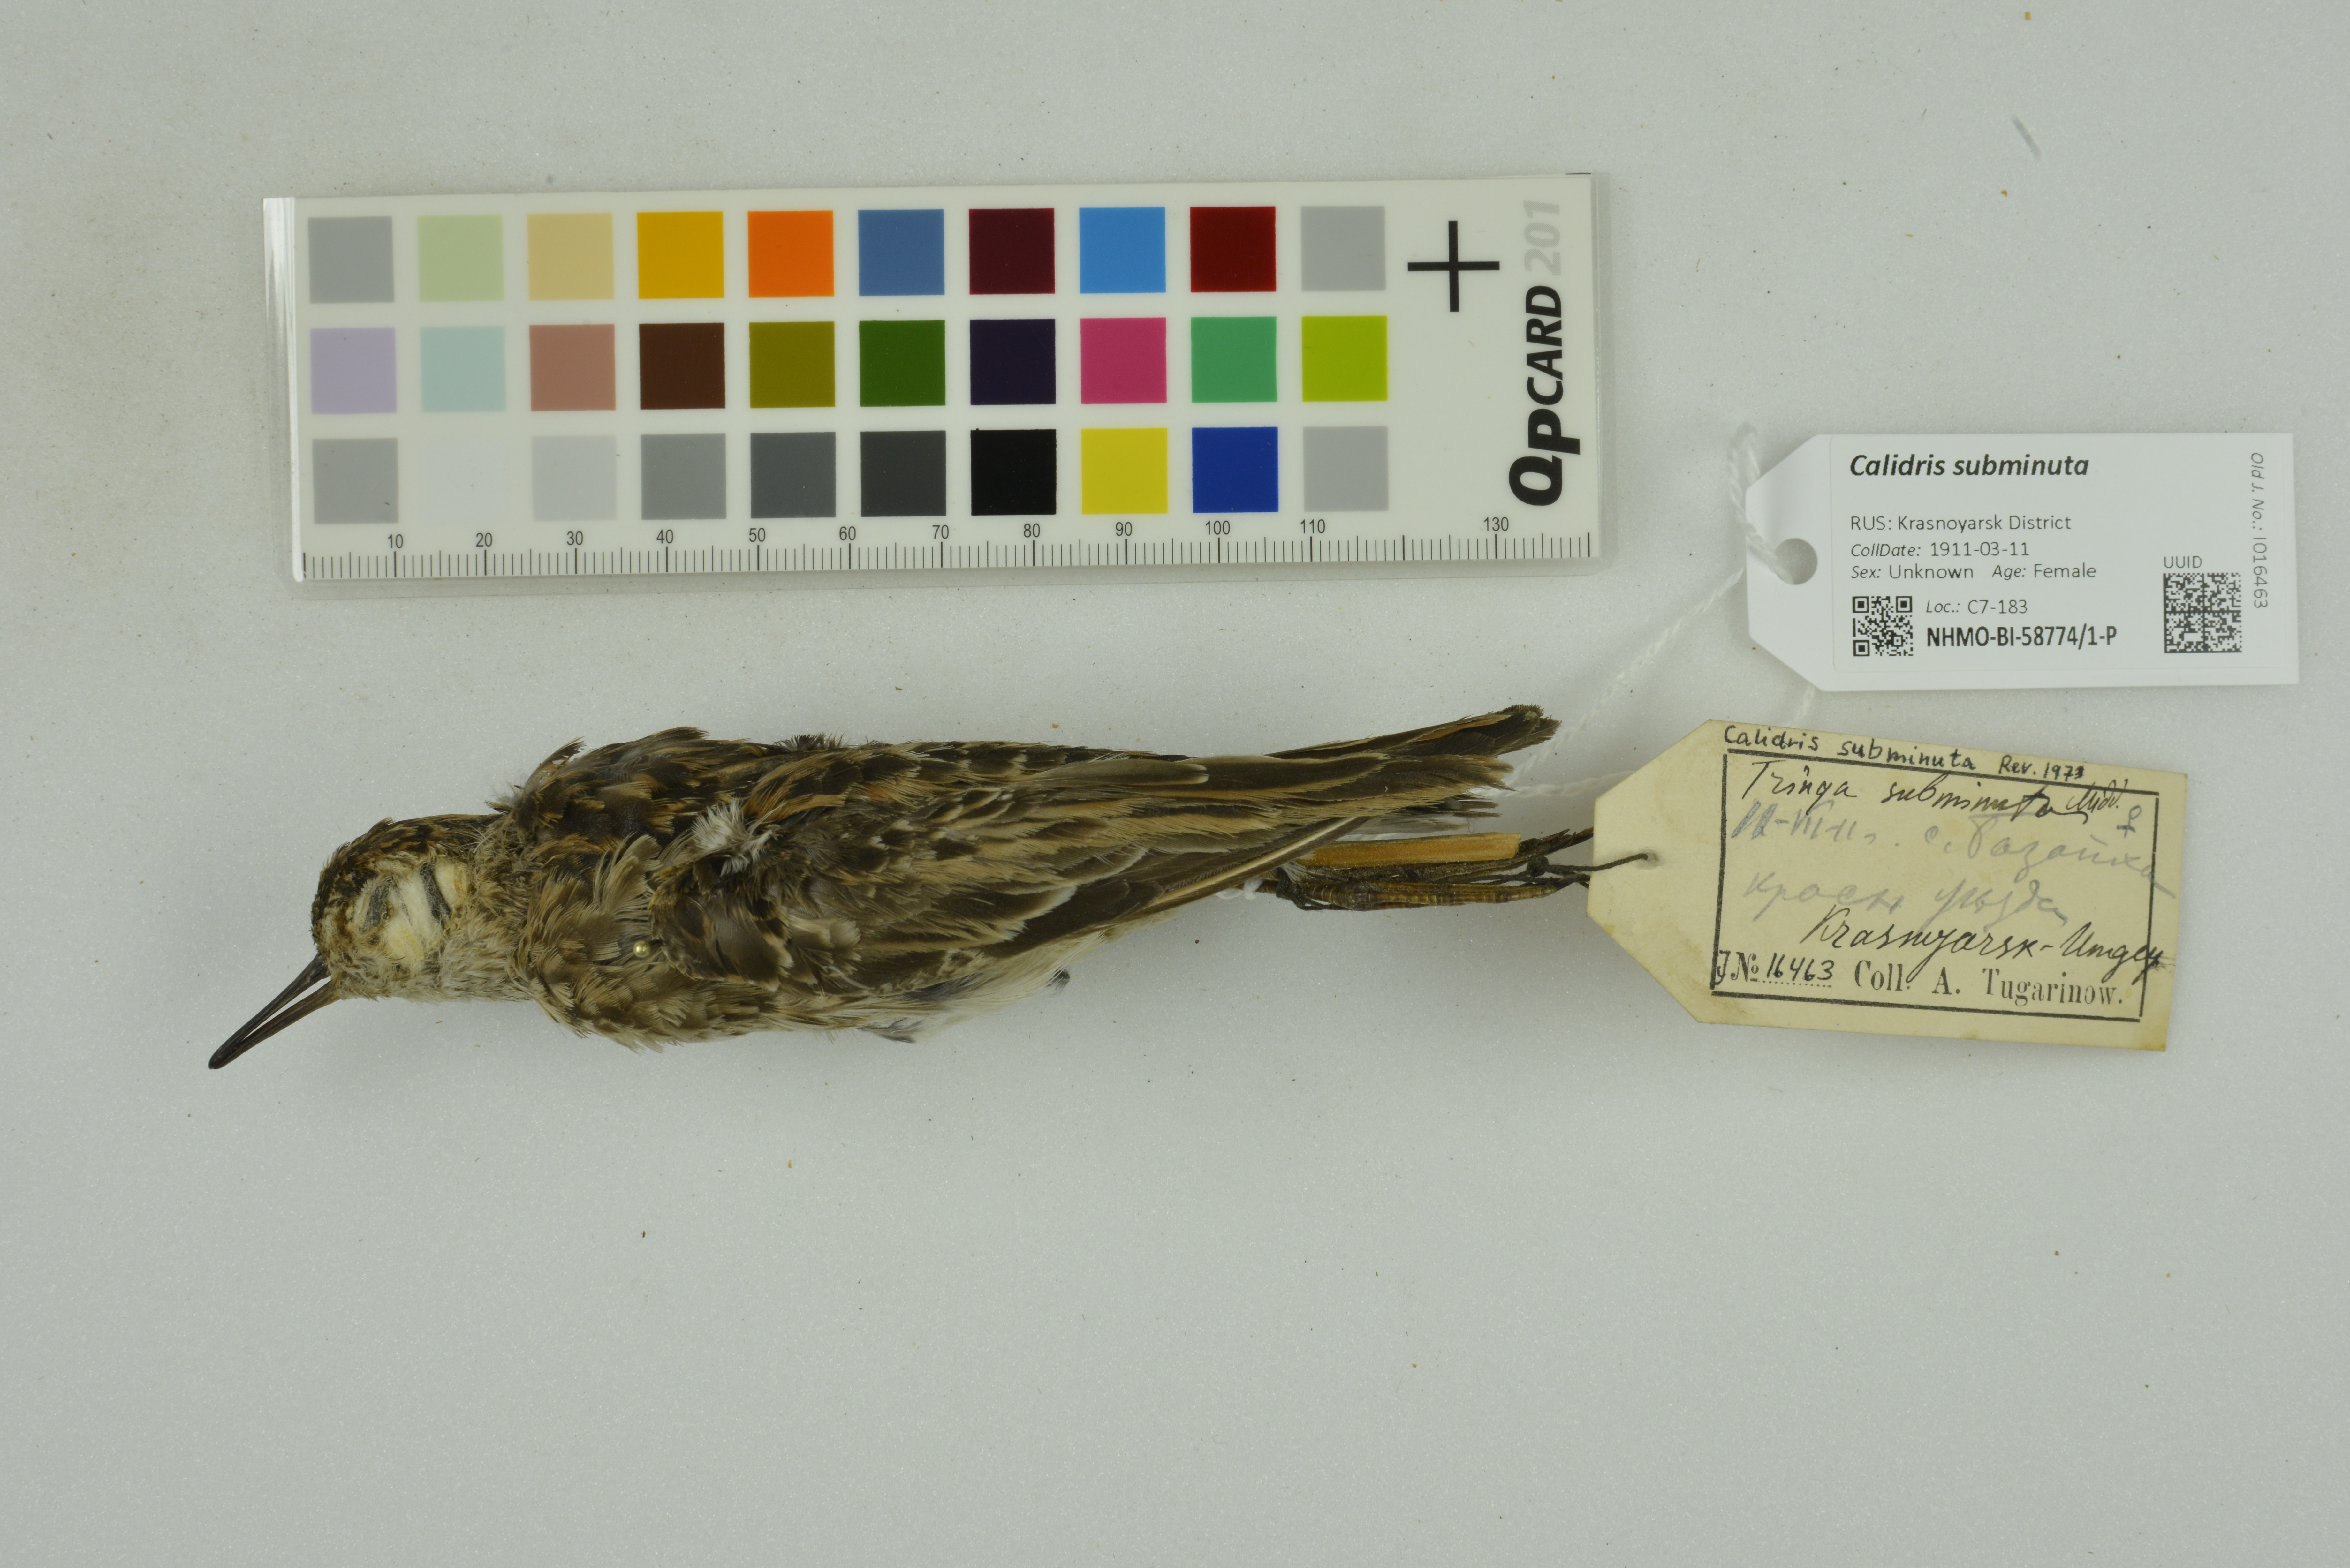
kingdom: Animalia
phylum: Chordata
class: Aves
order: Charadriiformes
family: Scolopacidae
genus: Calidris
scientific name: Calidris subminuta
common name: Long-toed stint
